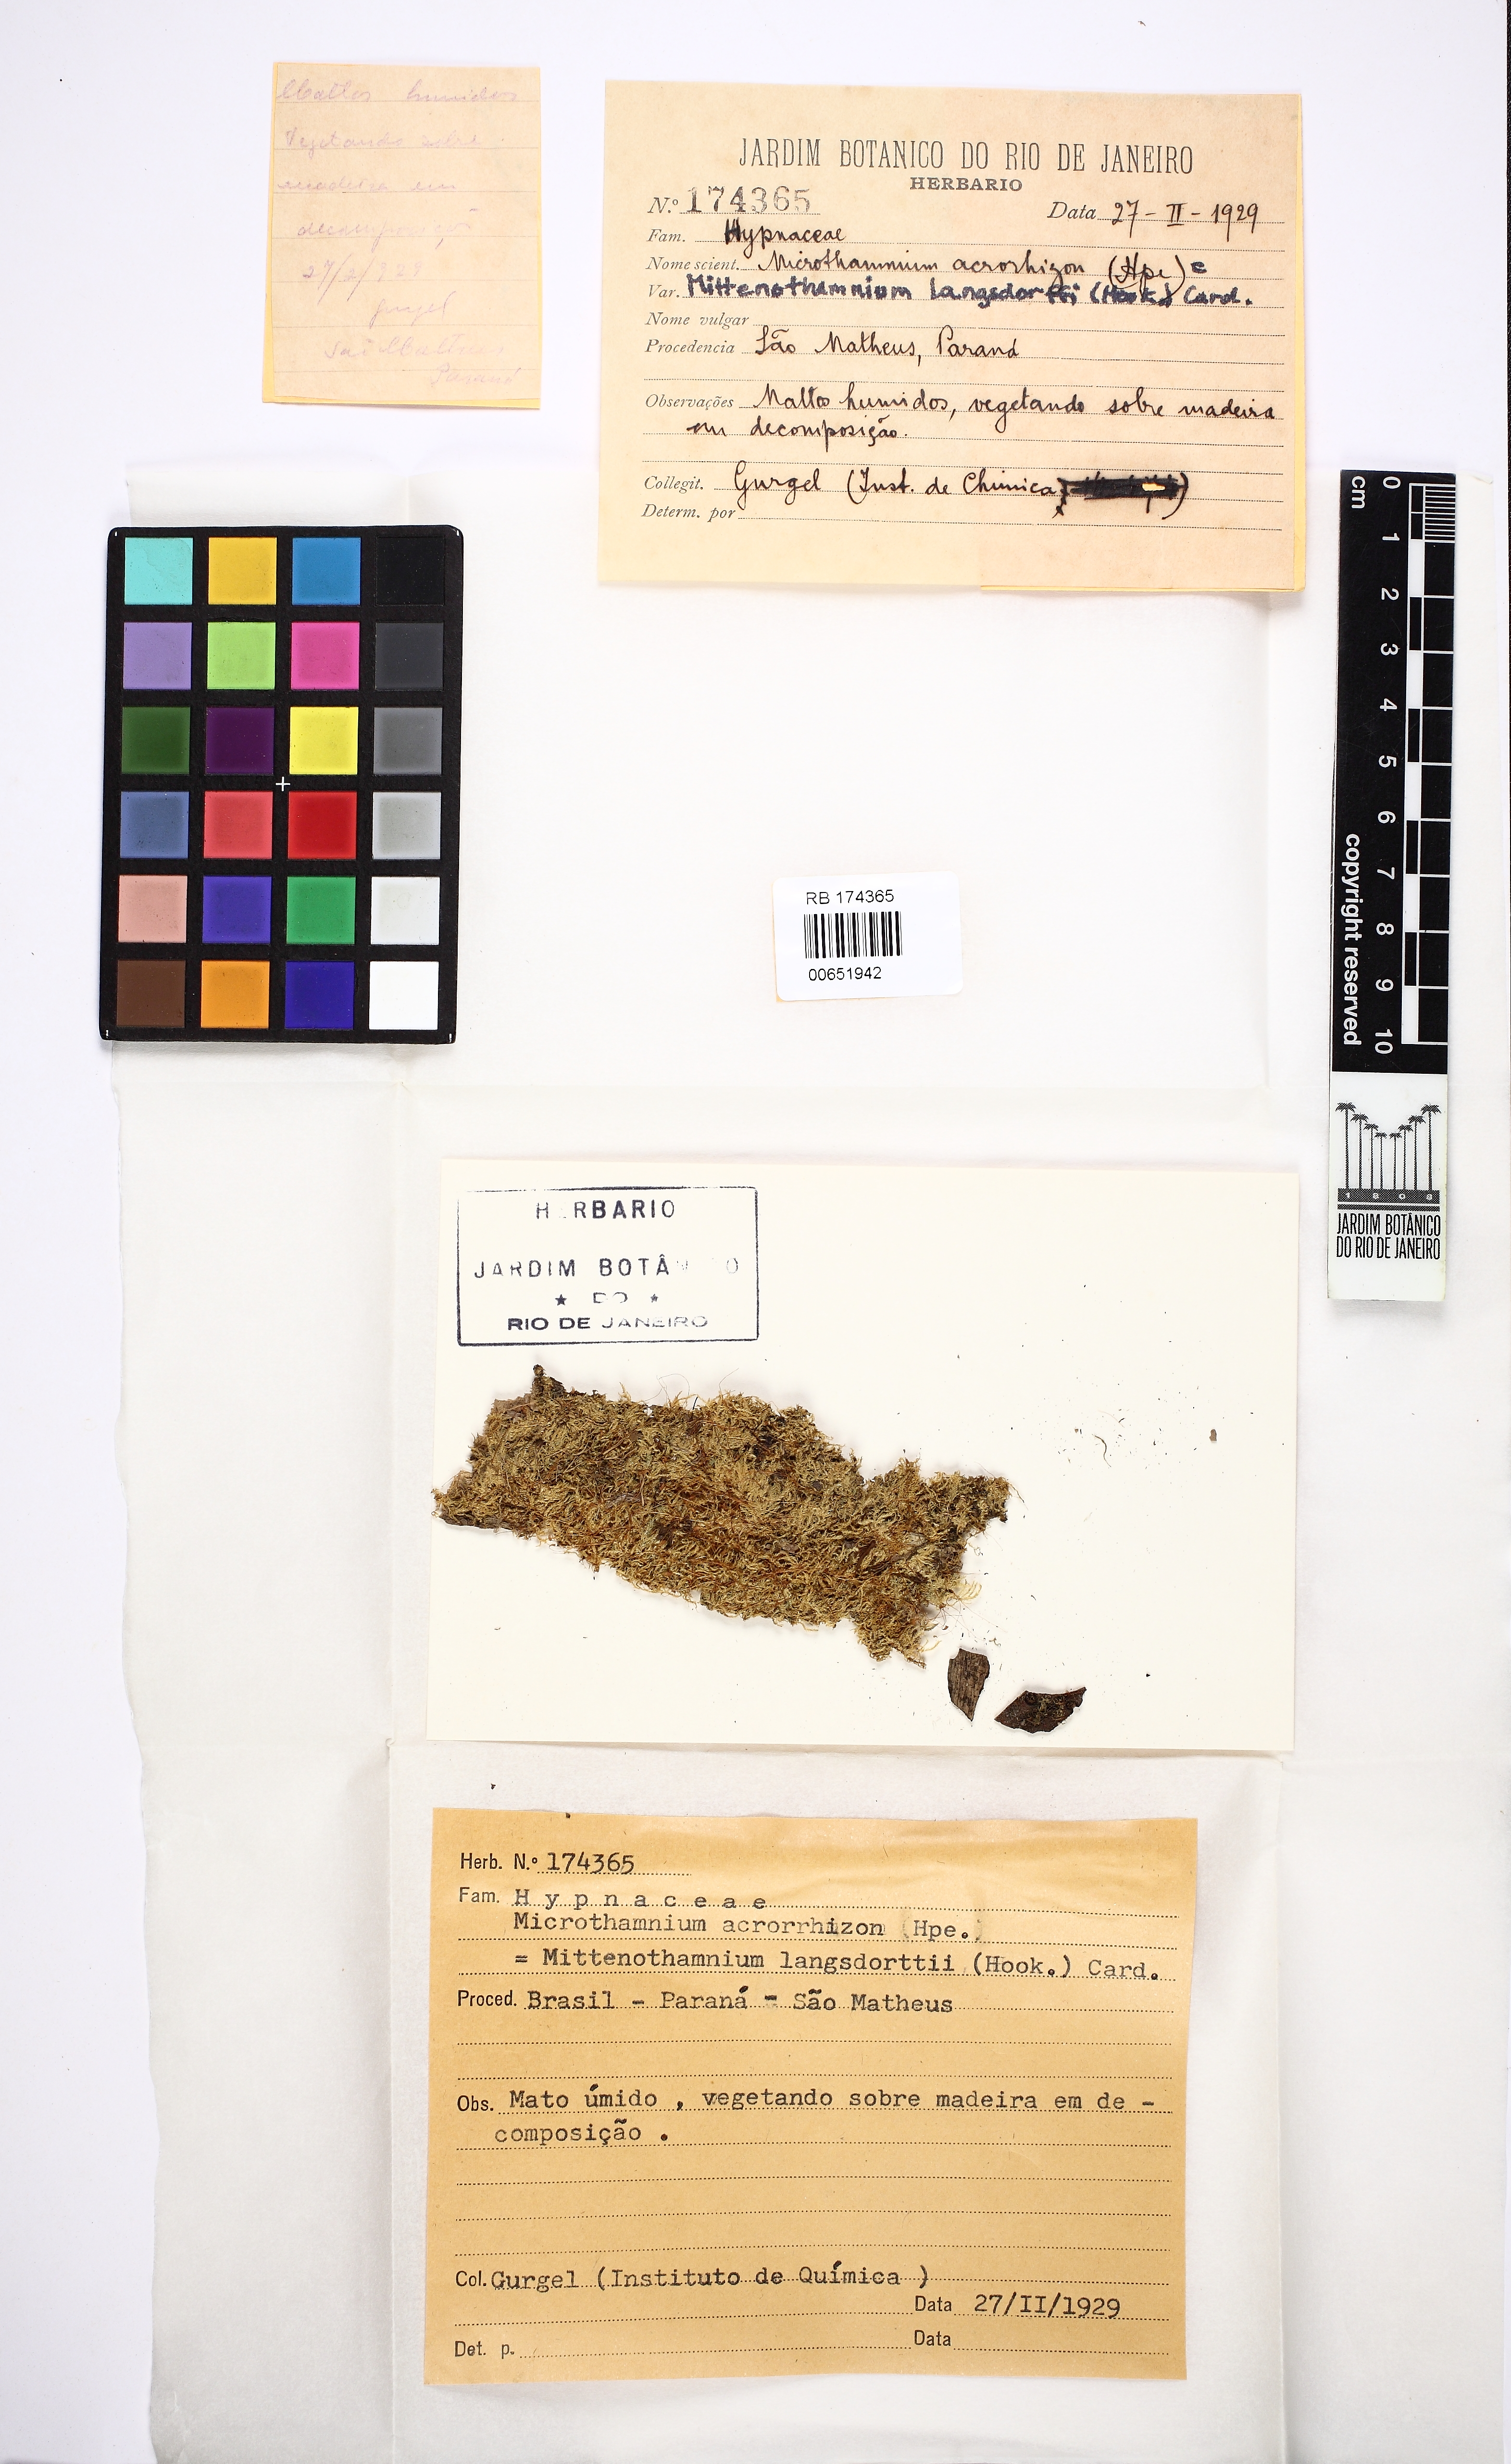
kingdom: Plantae
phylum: Bryophyta
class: Bryopsida
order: Hypnales
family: Hypnaceae
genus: Chryso-hypnum
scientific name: Chryso-hypnum diminutivum
